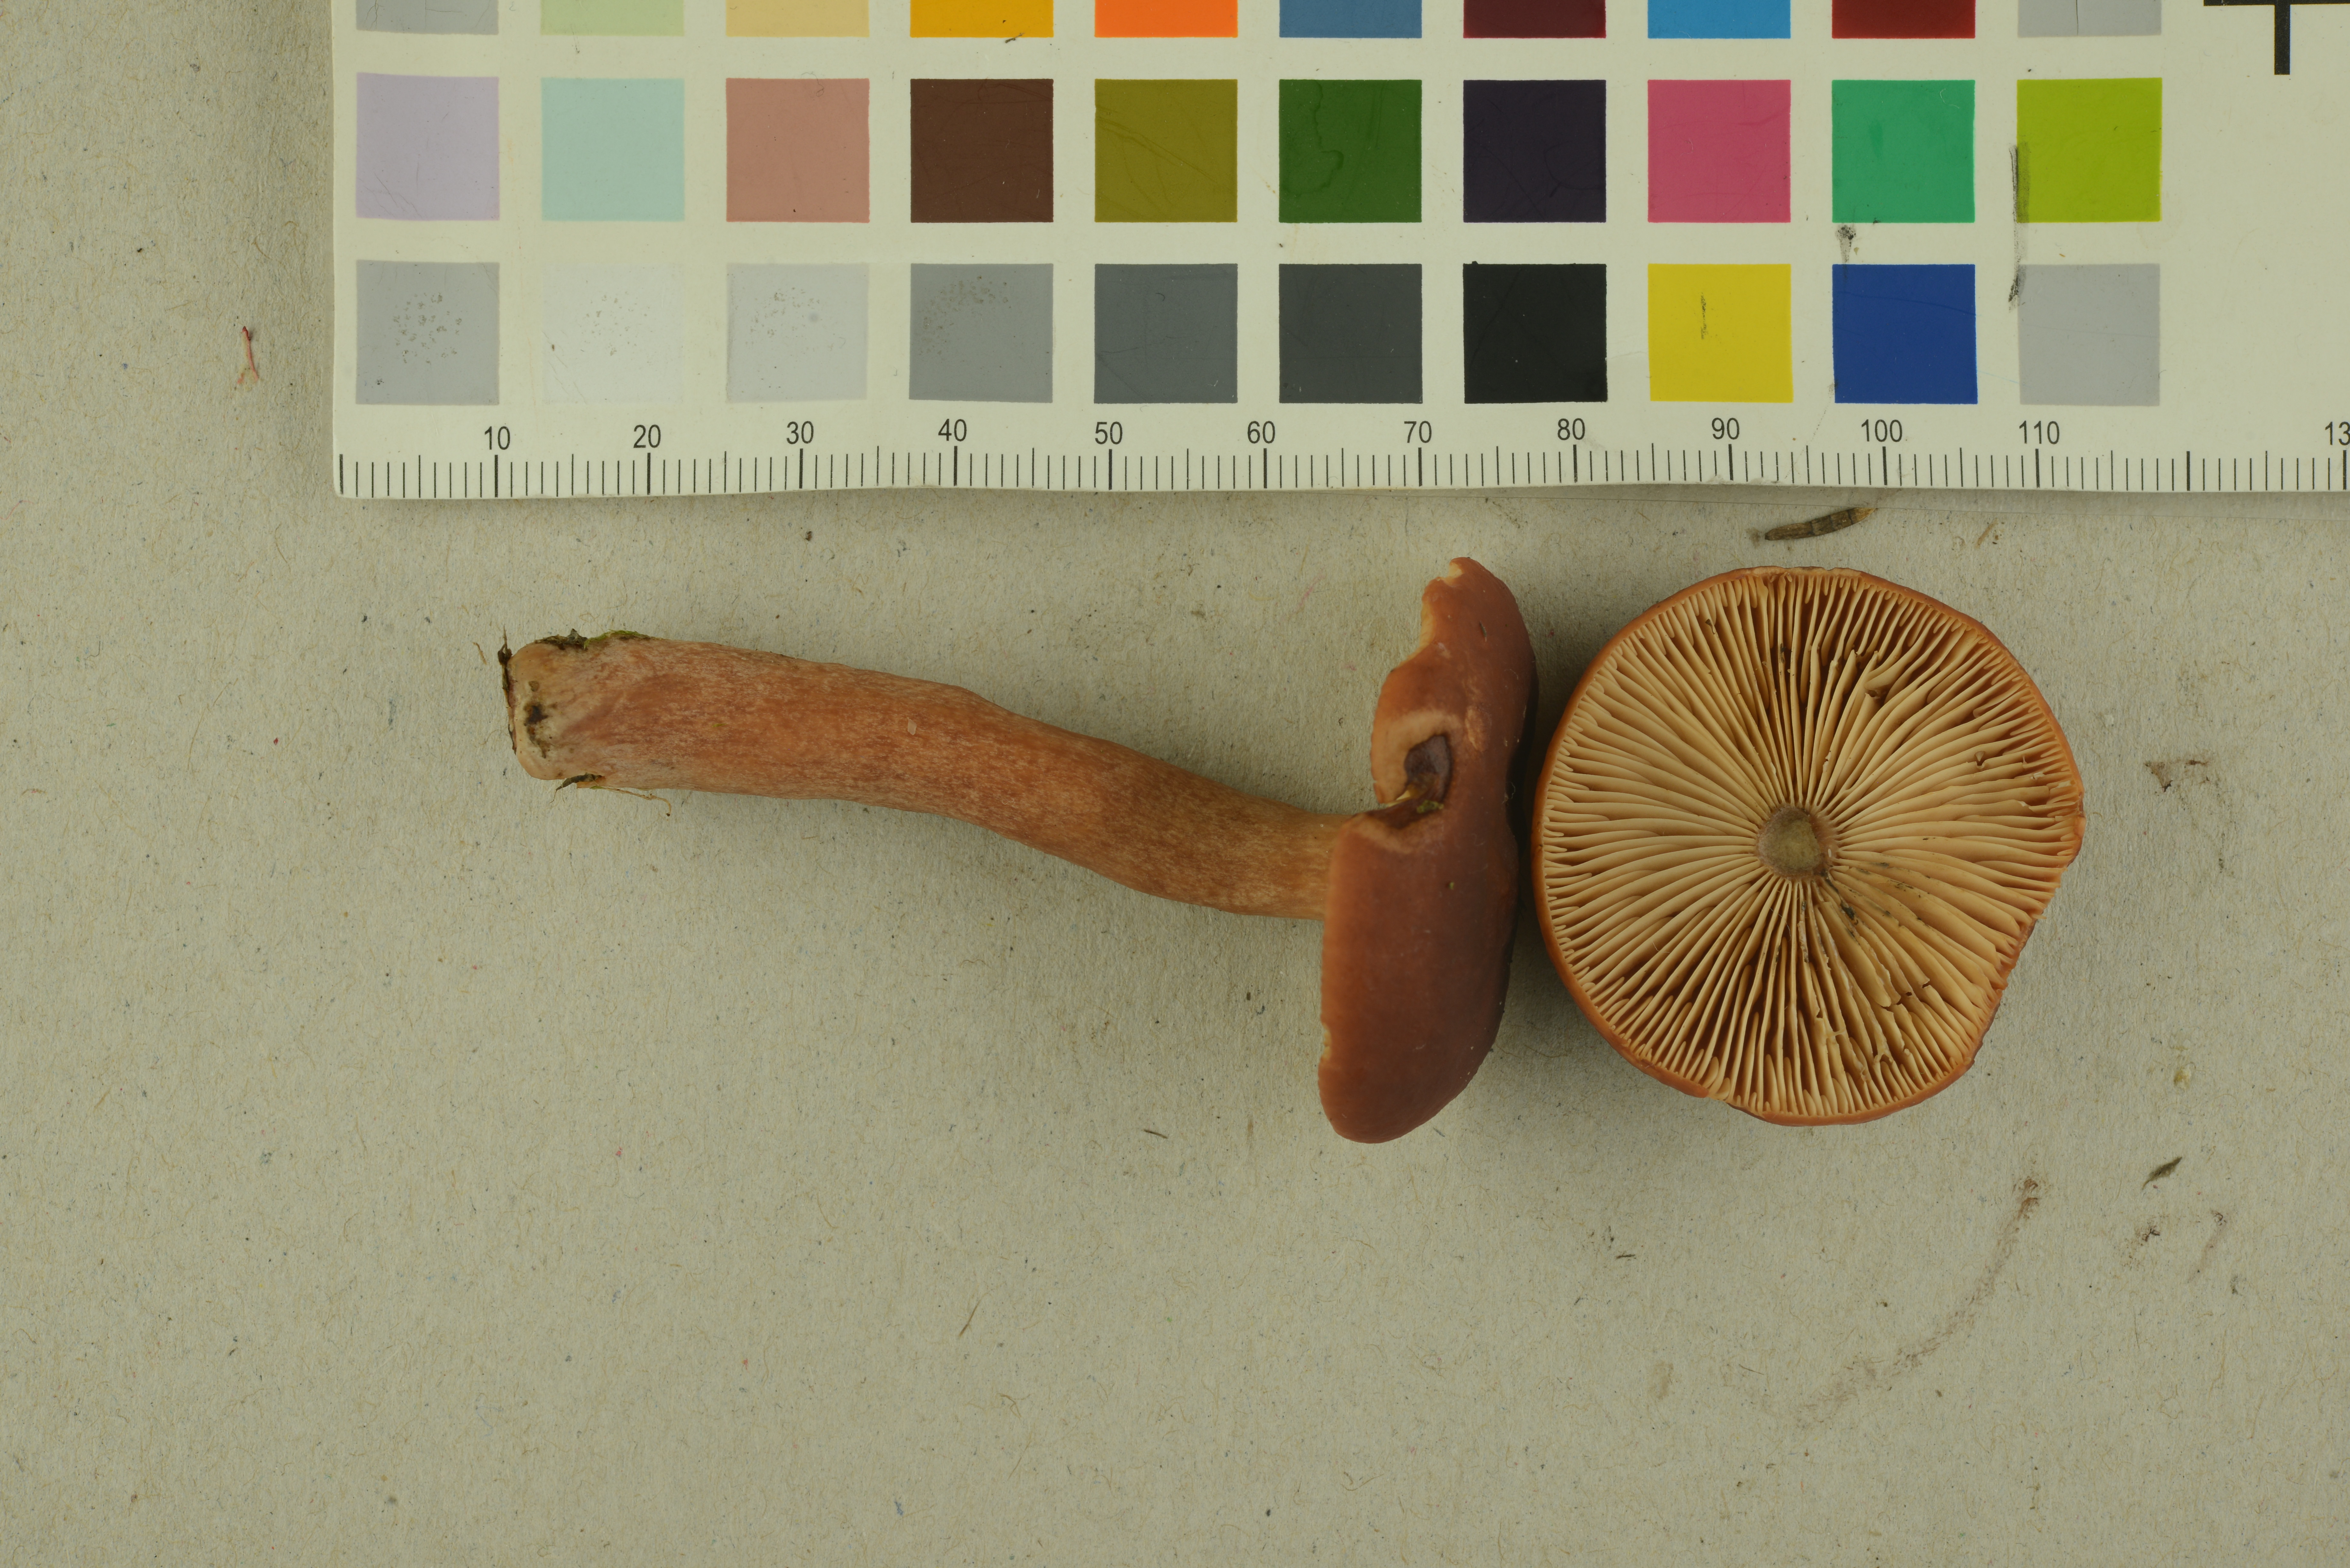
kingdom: Fungi
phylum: Basidiomycota
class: Agaricomycetes
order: Russulales
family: Russulaceae
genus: Lactarius
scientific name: Lactarius sphagneti
